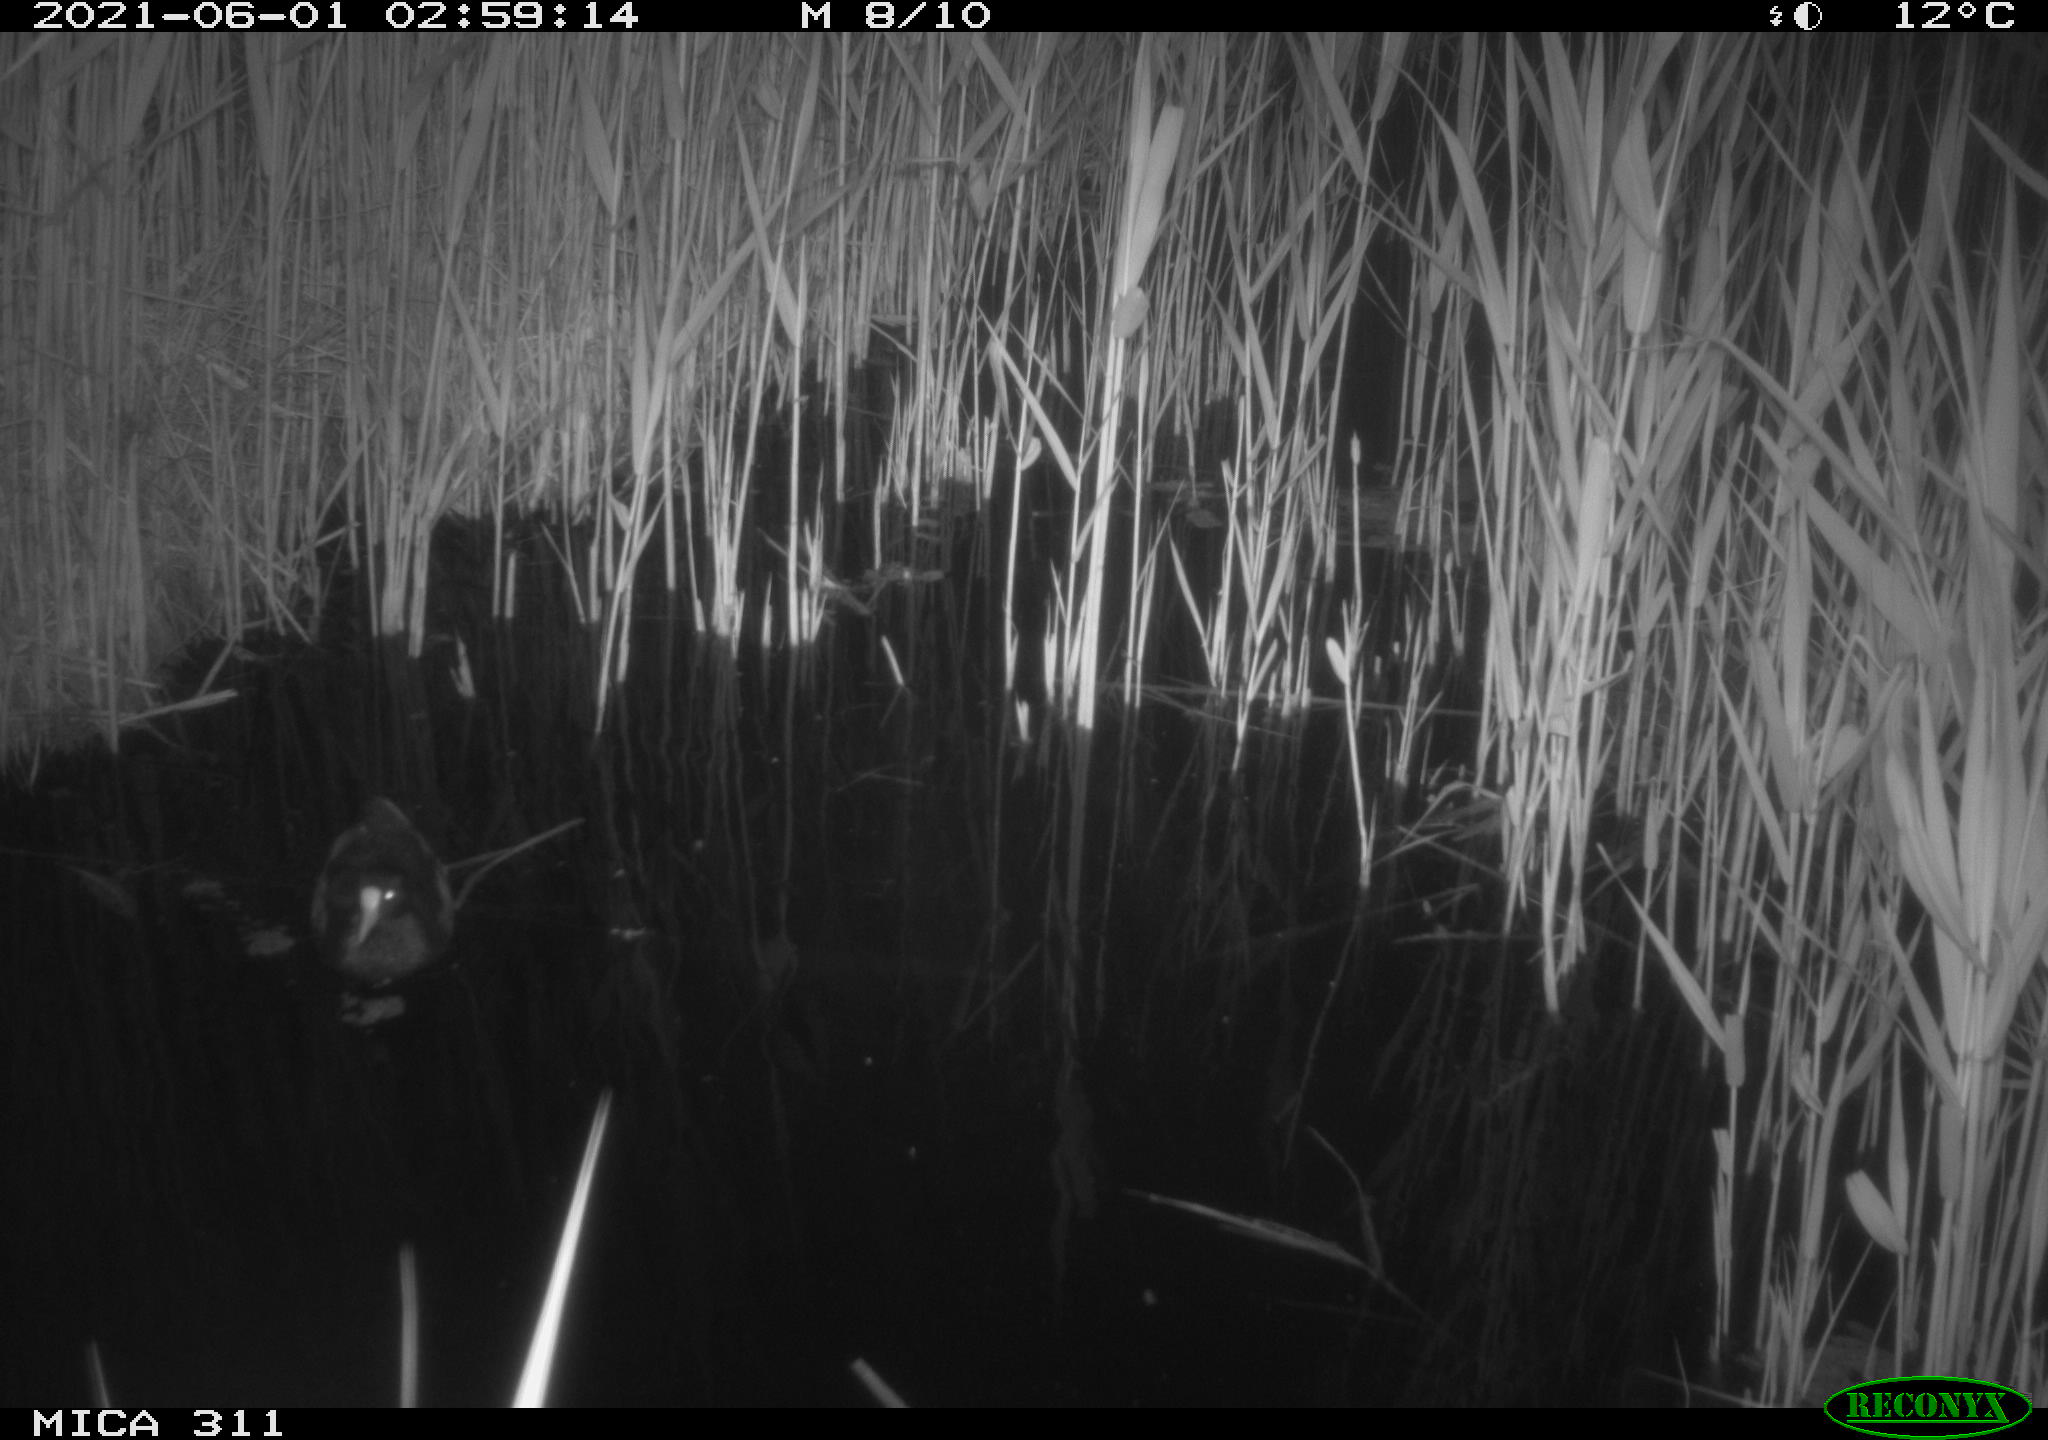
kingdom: Animalia
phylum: Chordata
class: Aves
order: Gruiformes
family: Rallidae
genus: Gallinula
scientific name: Gallinula chloropus
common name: Common moorhen
